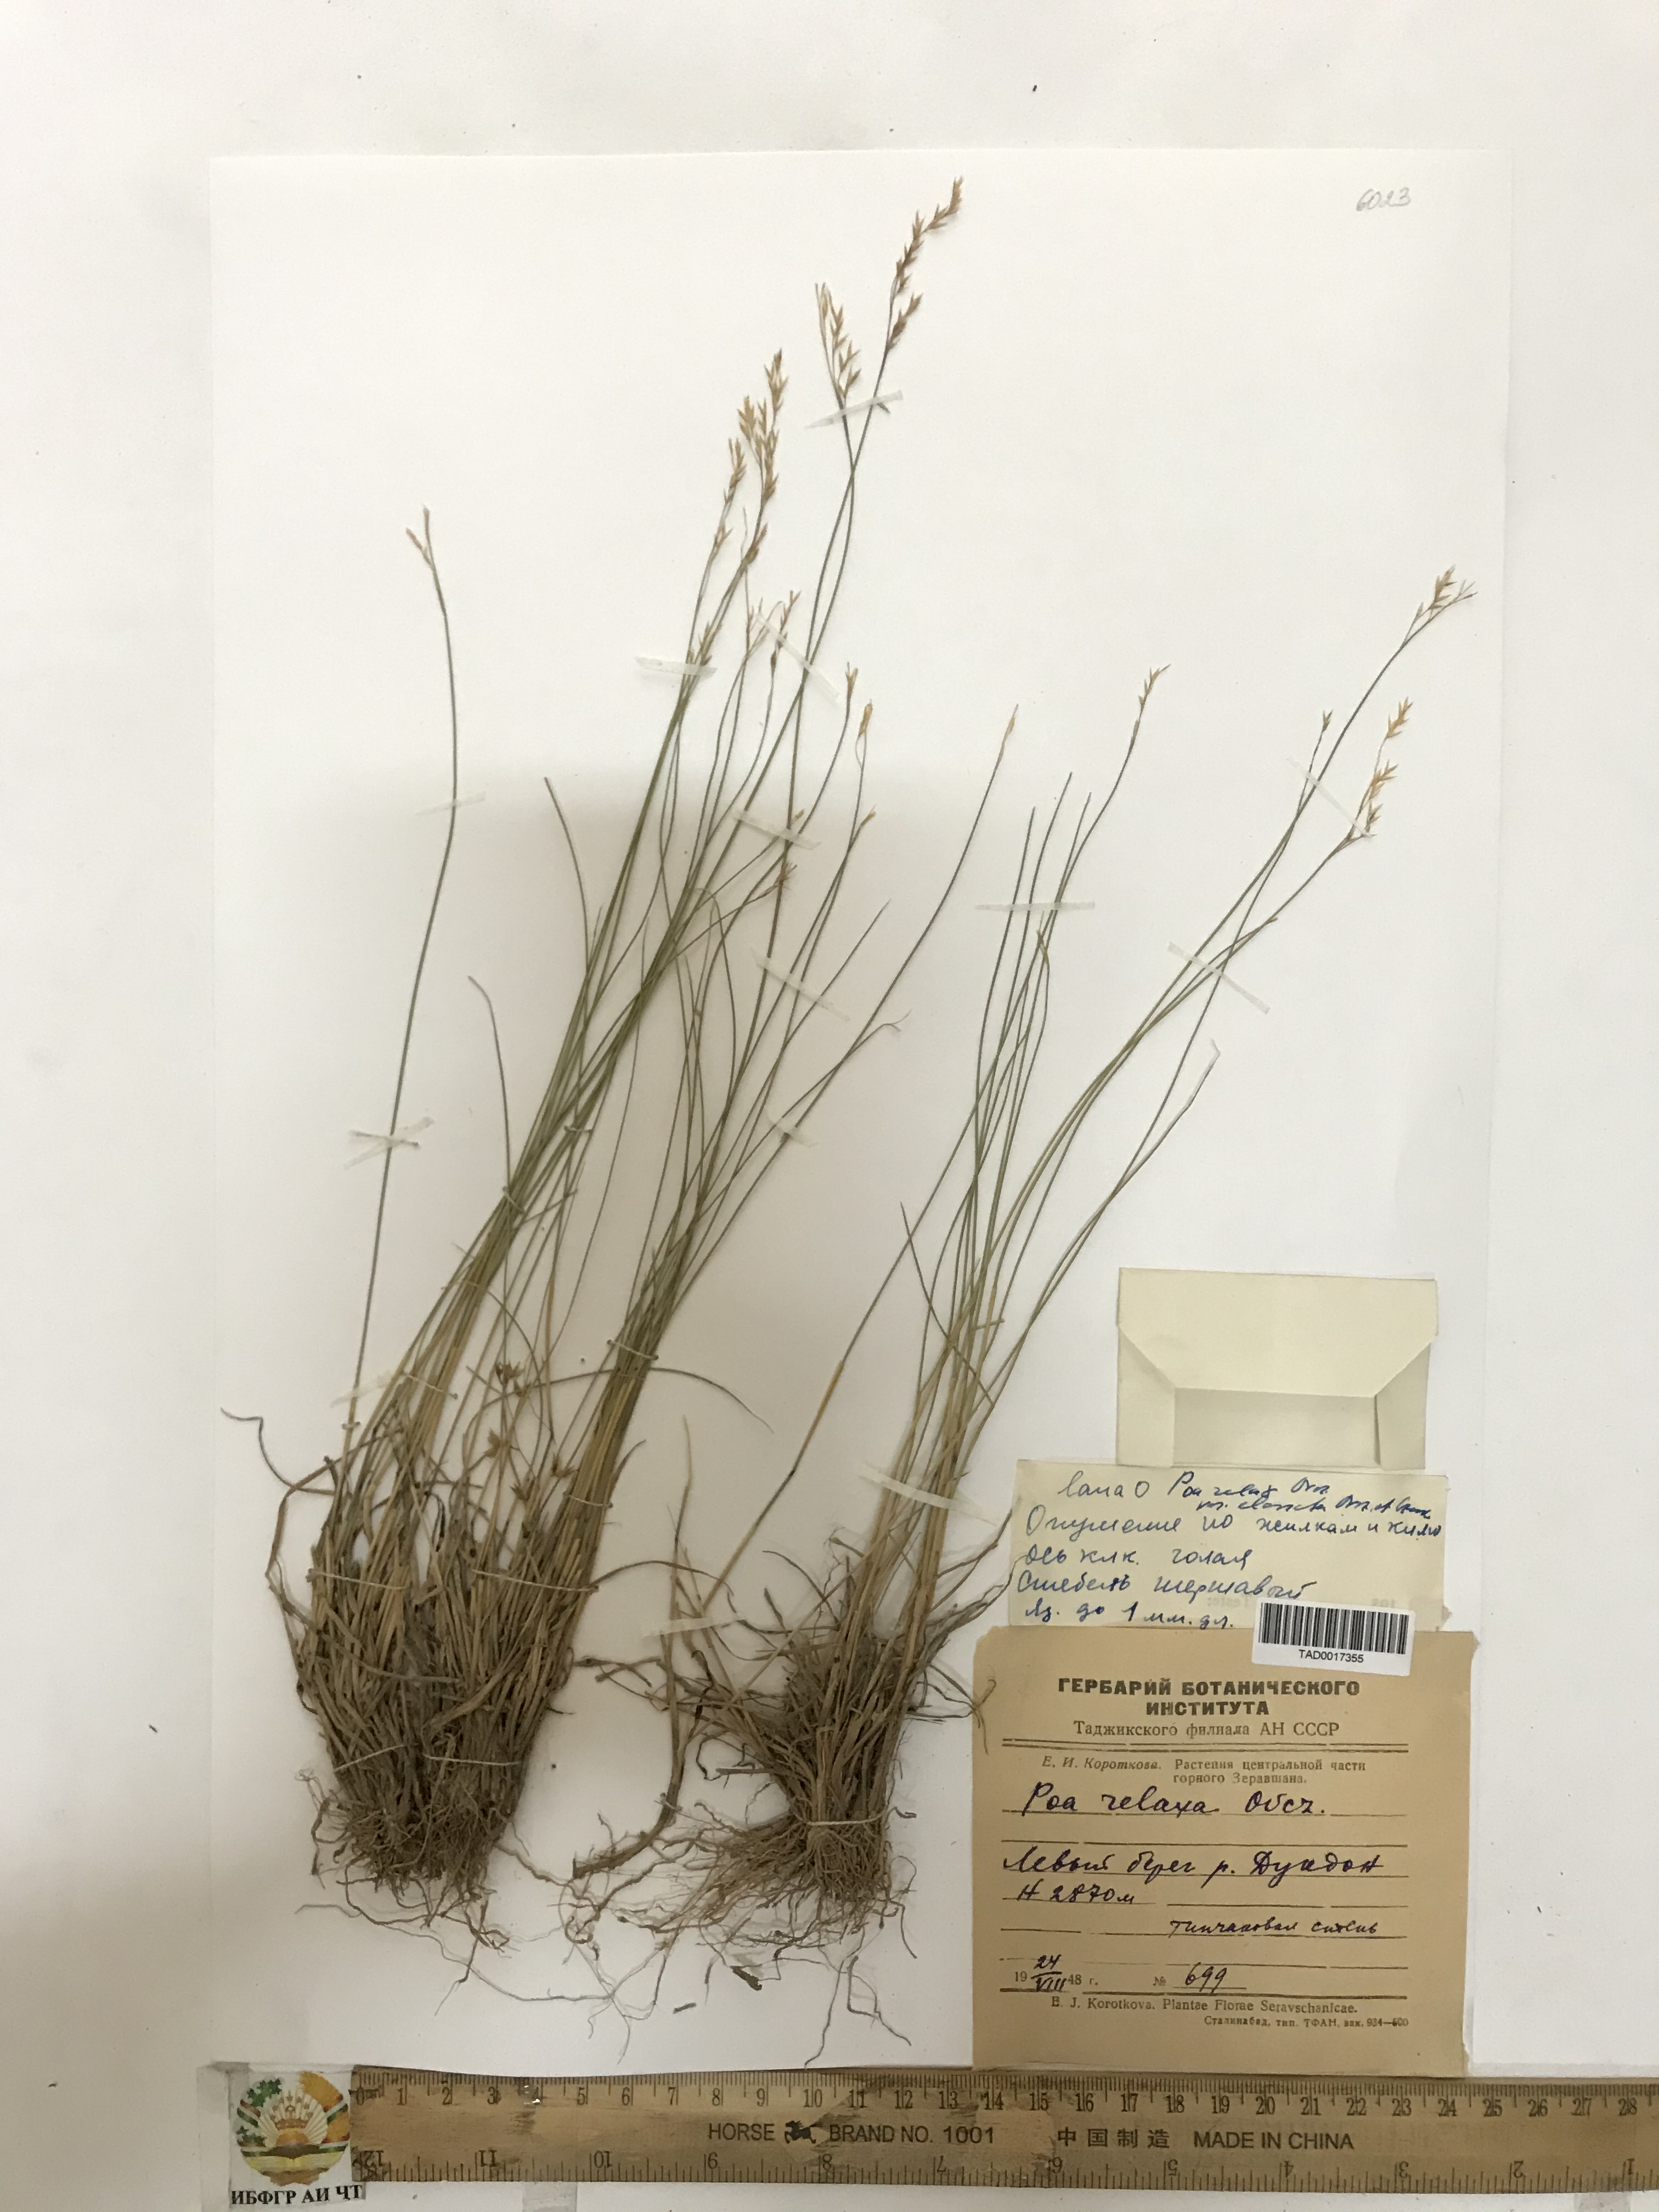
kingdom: Plantae
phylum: Tracheophyta
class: Liliopsida
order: Poales
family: Poaceae
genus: Poa
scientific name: Poa reflexa
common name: Nodding bluegrass
